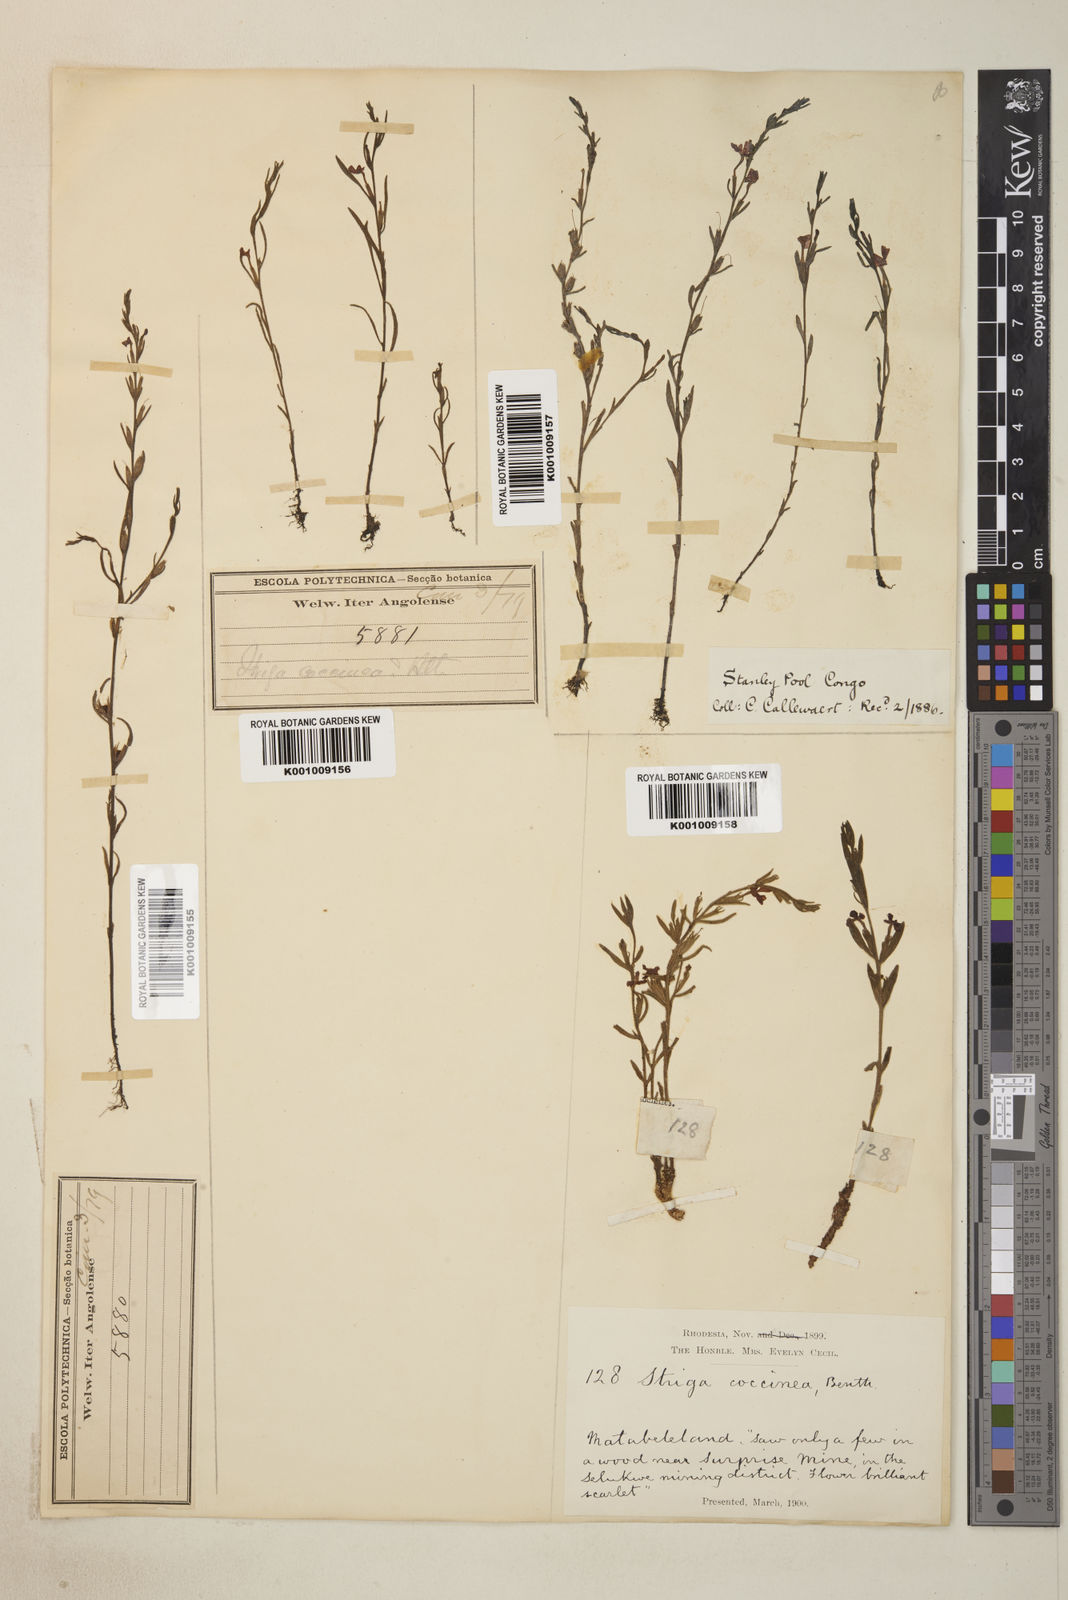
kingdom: Plantae
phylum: Tracheophyta
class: Magnoliopsida
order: Lamiales
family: Orobanchaceae
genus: Striga
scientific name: Striga asiatica
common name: Asiatic witchweed
